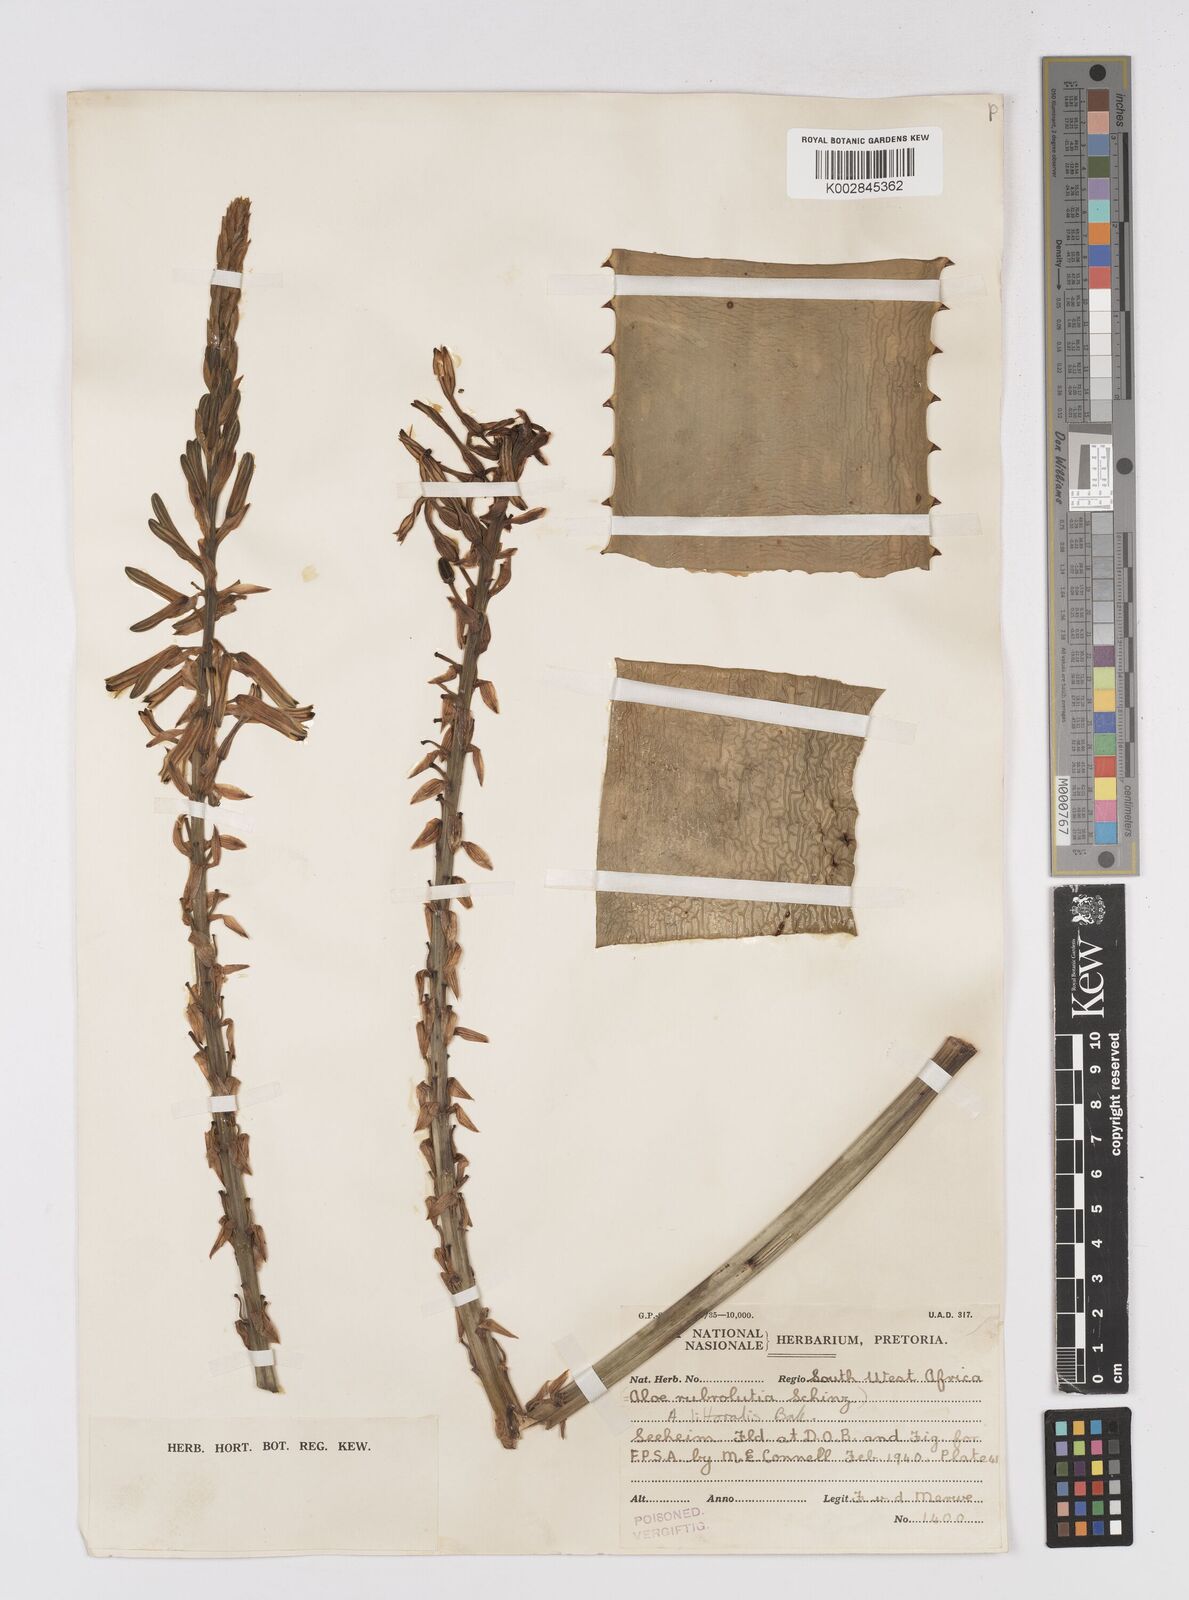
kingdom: Plantae
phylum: Tracheophyta
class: Liliopsida
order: Asparagales
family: Asphodelaceae
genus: Aloe
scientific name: Aloe littoralis
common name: Luanda tree aloe
